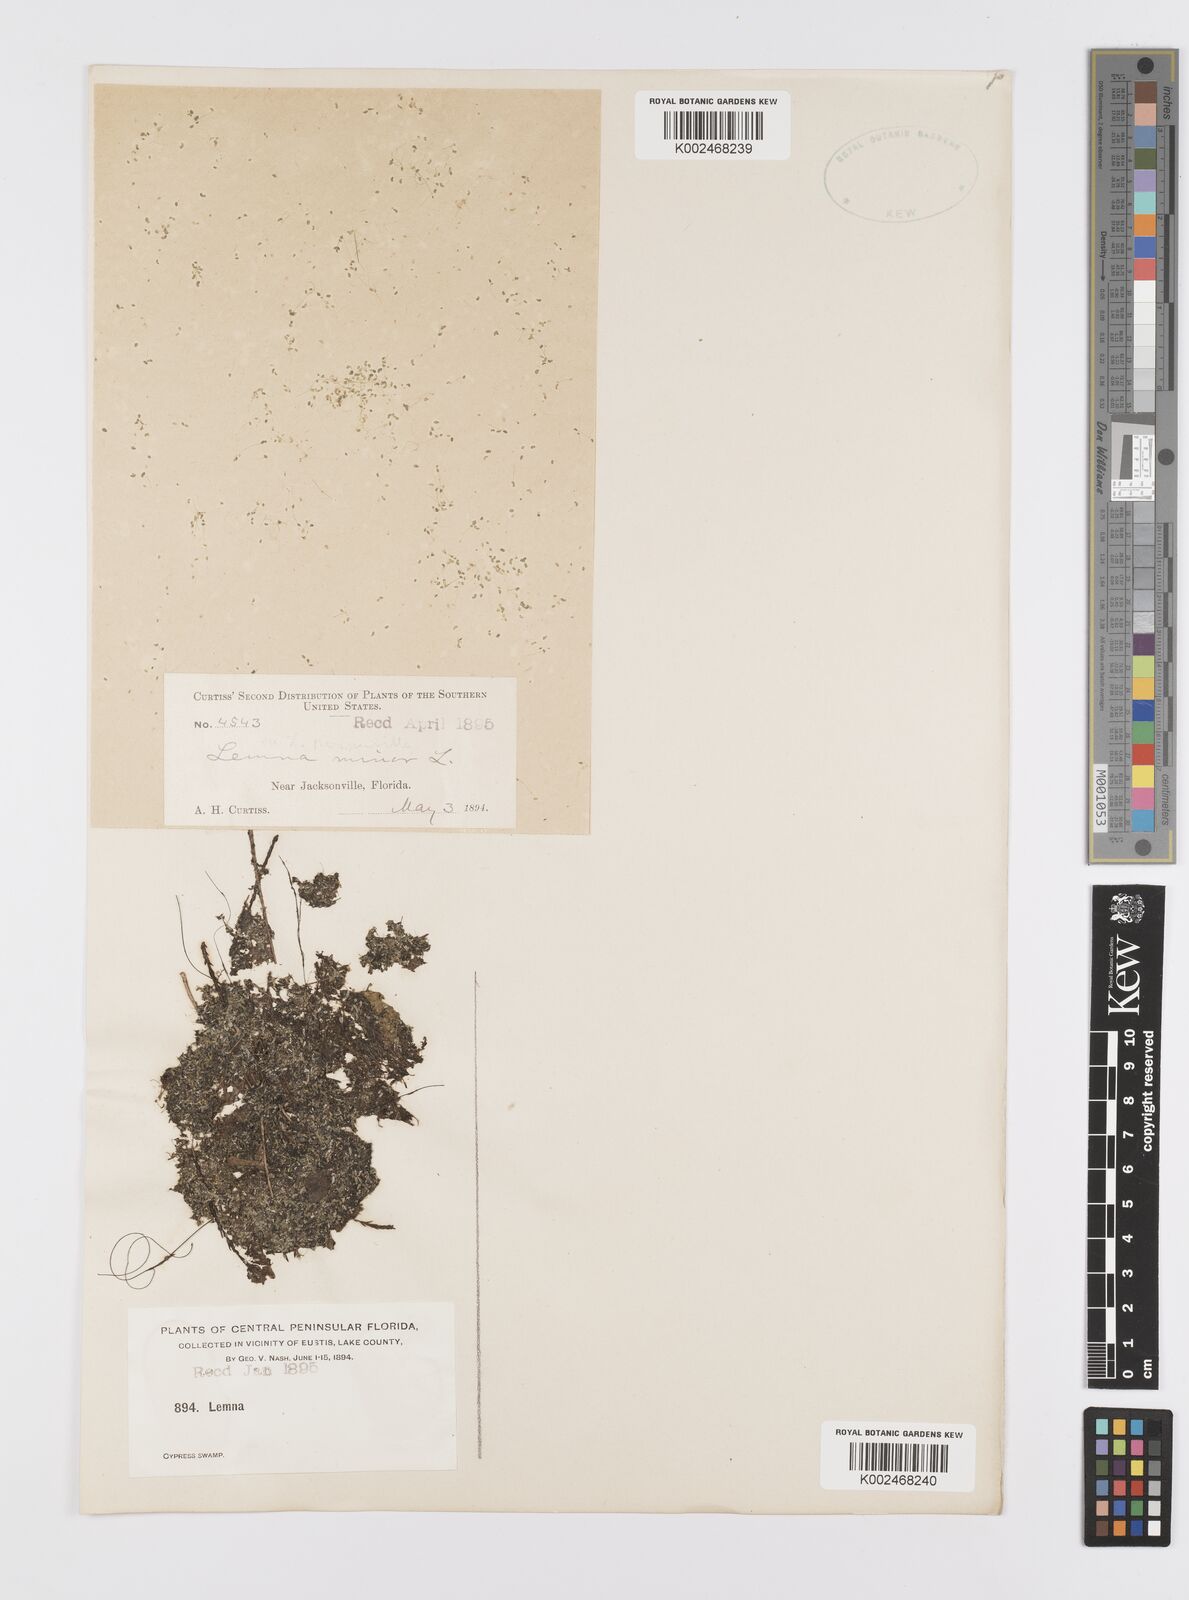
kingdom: Plantae
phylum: Tracheophyta
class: Liliopsida
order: Alismatales
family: Araceae
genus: Lemna
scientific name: Lemna minor
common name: Common duckweed
